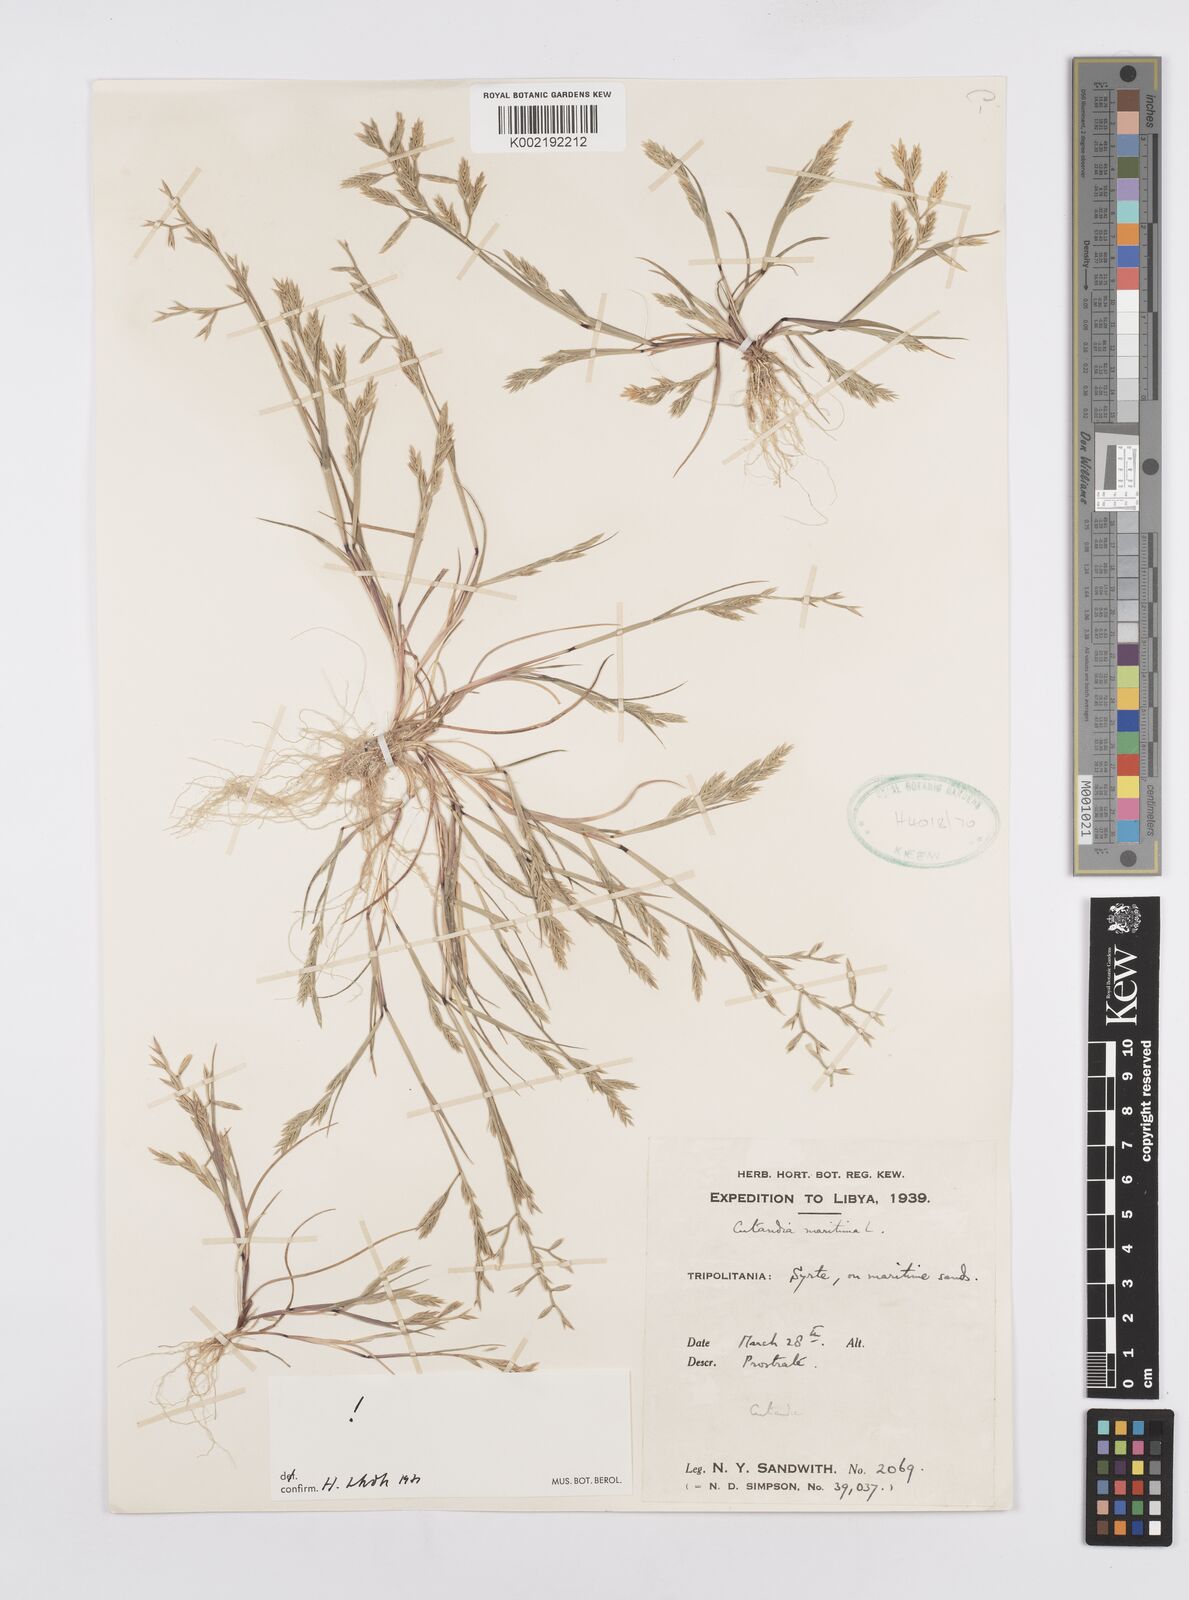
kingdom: Plantae
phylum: Tracheophyta
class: Liliopsida
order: Poales
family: Poaceae
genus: Cutandia
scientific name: Cutandia maritima
